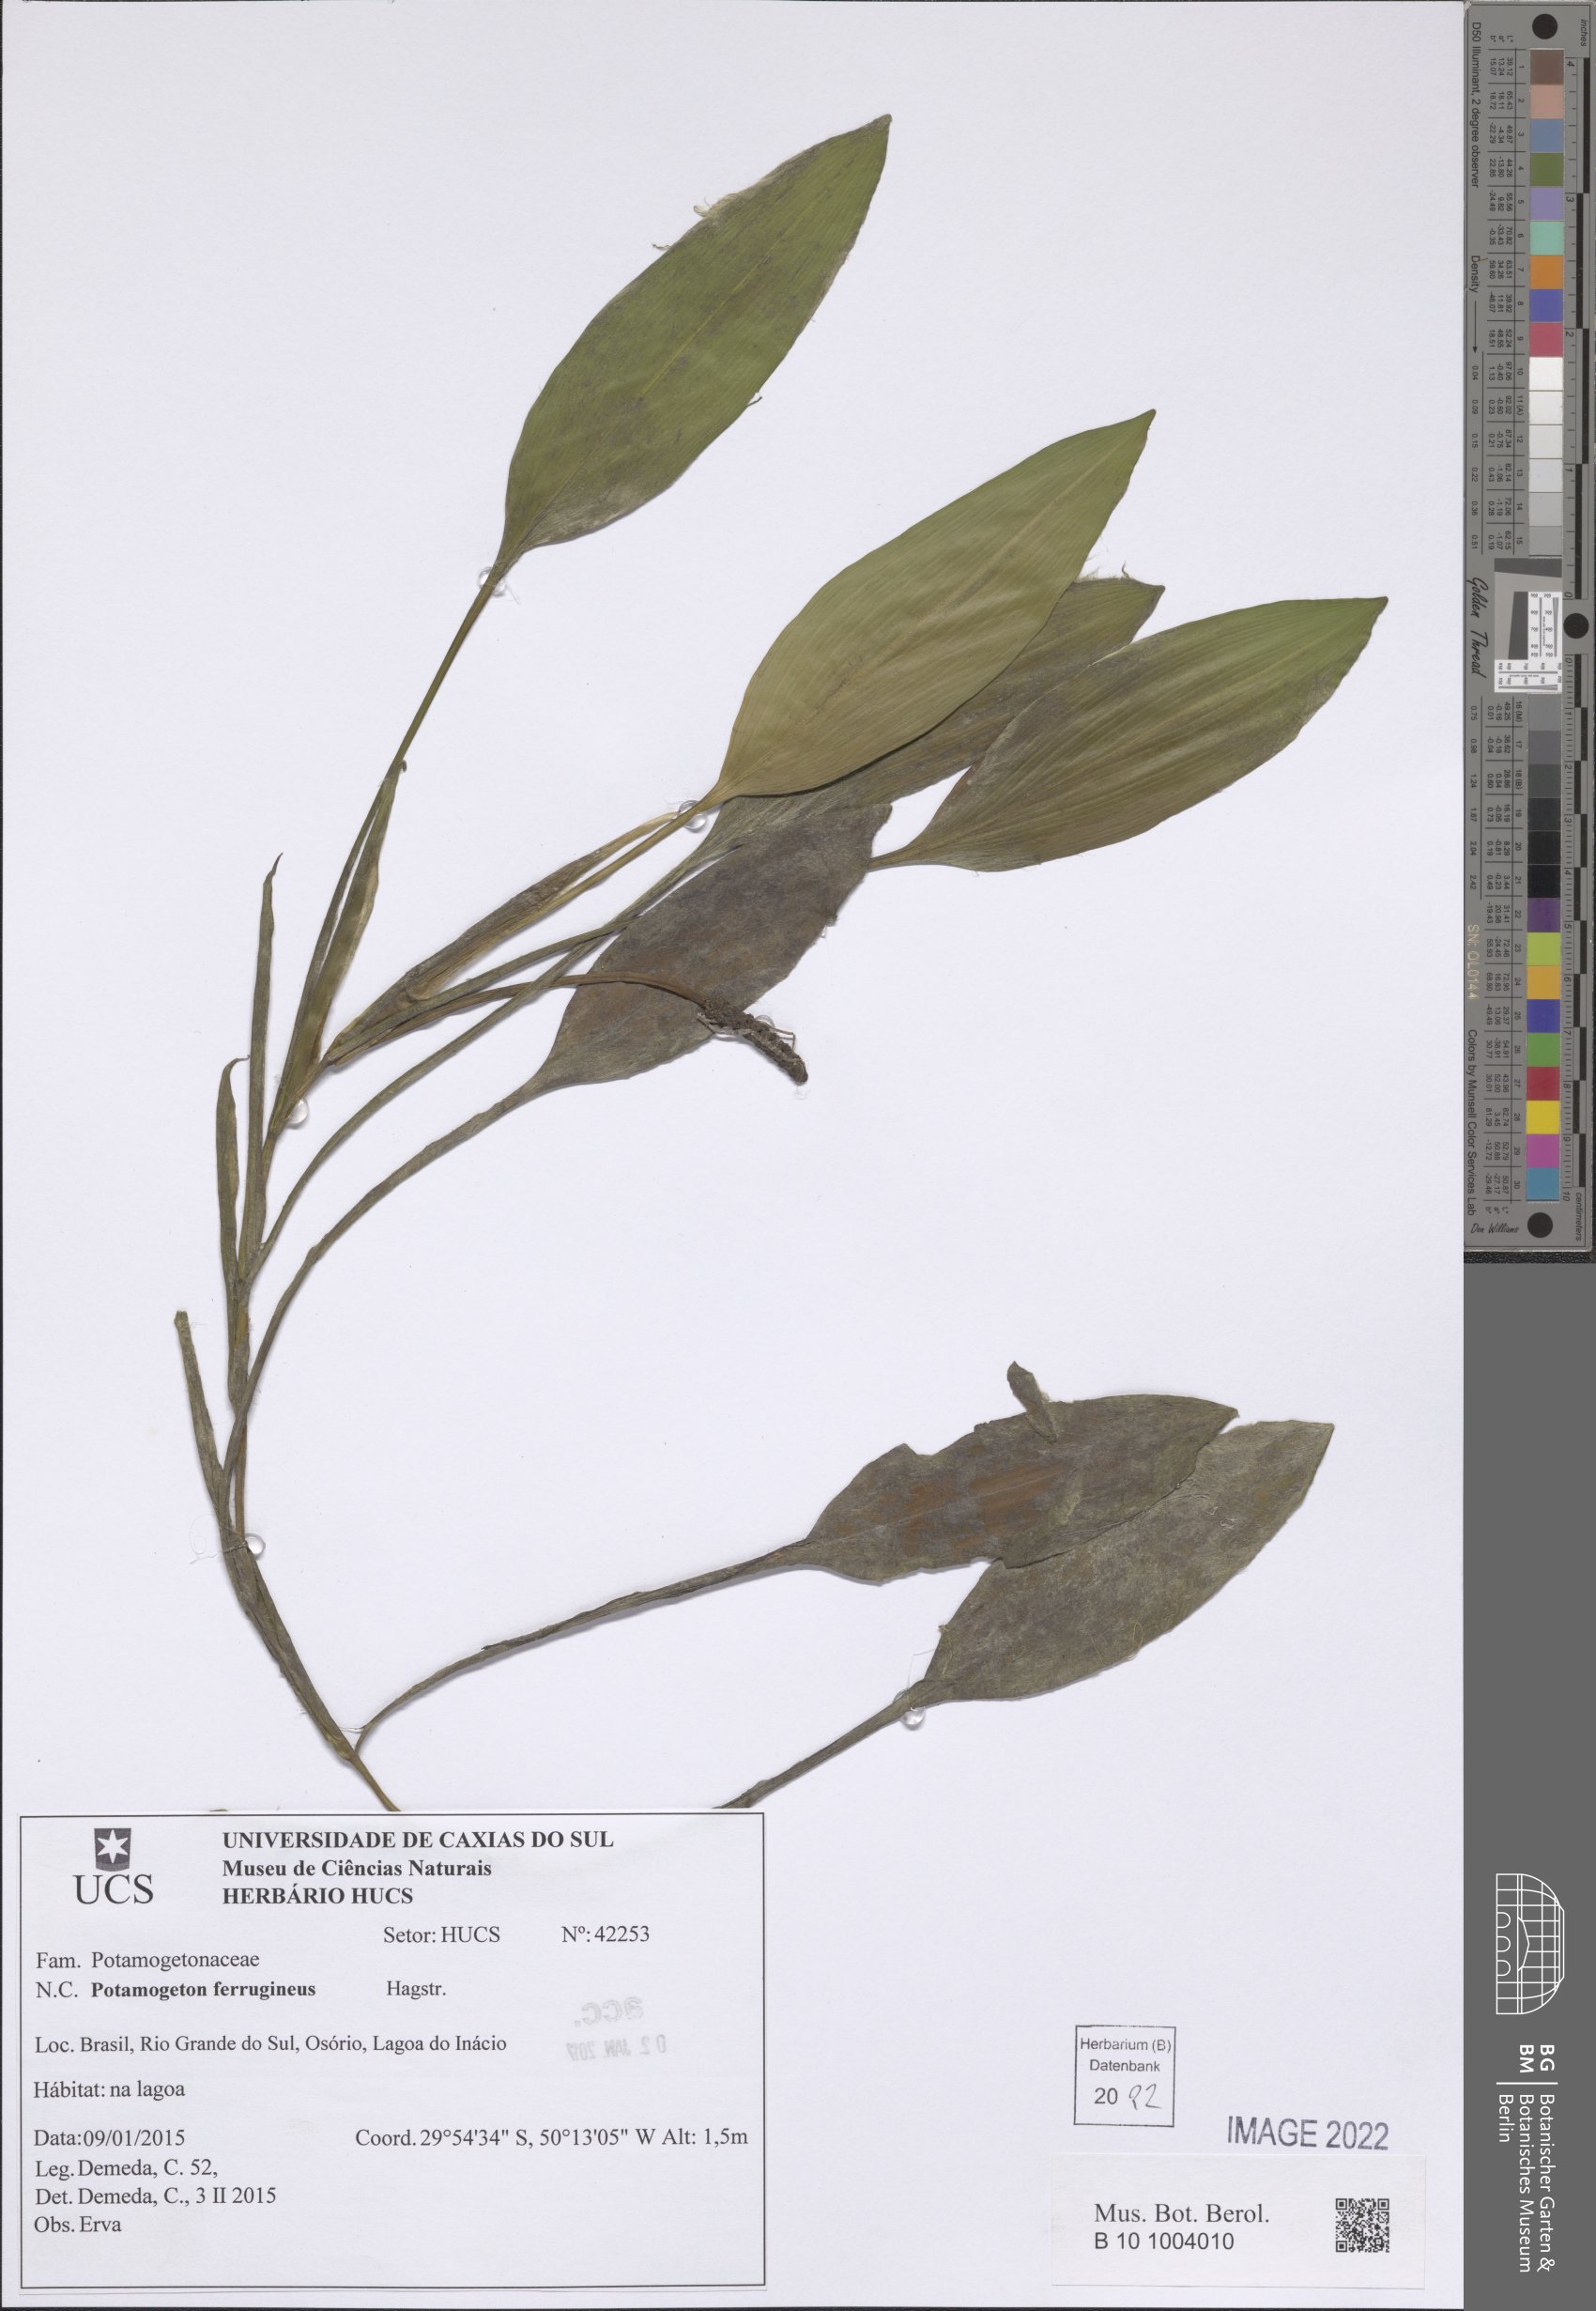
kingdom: Plantae
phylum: Tracheophyta
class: Liliopsida
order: Alismatales
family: Potamogetonaceae
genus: Potamogeton
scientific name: Potamogeton ferrugineus
